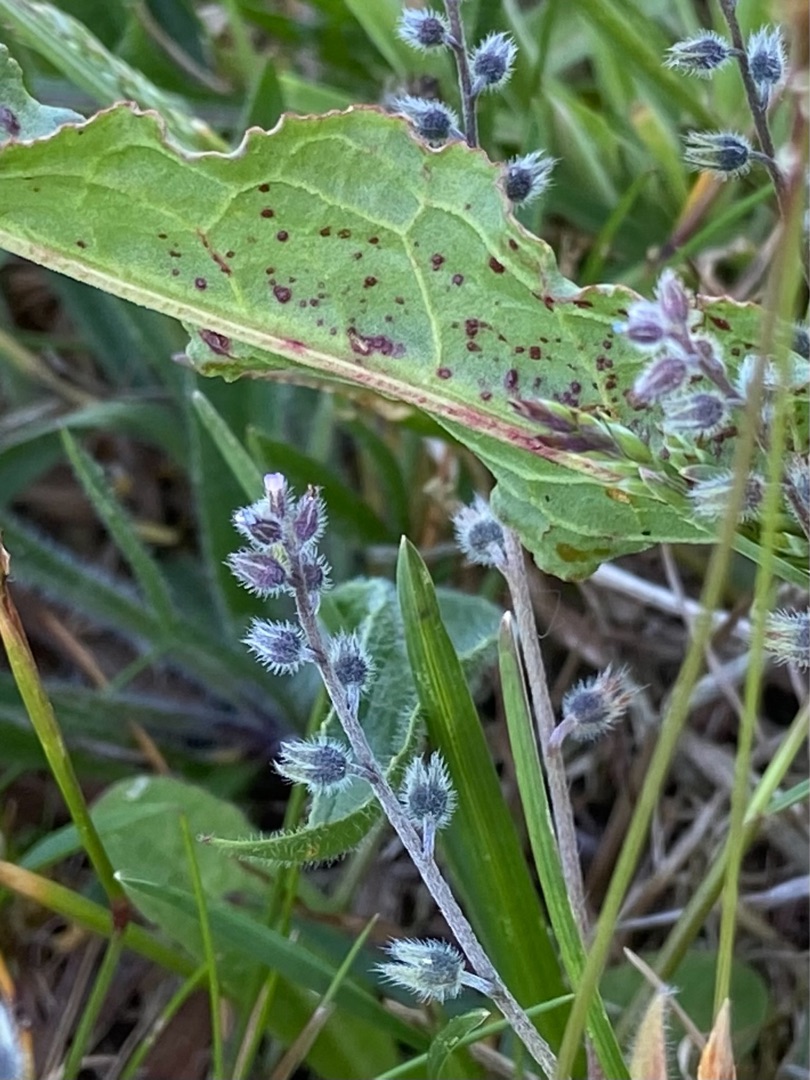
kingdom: Plantae
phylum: Tracheophyta
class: Magnoliopsida
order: Boraginales
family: Boraginaceae
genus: Myosotis
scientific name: Myosotis ramosissima
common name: Bakke-forglemmigej
